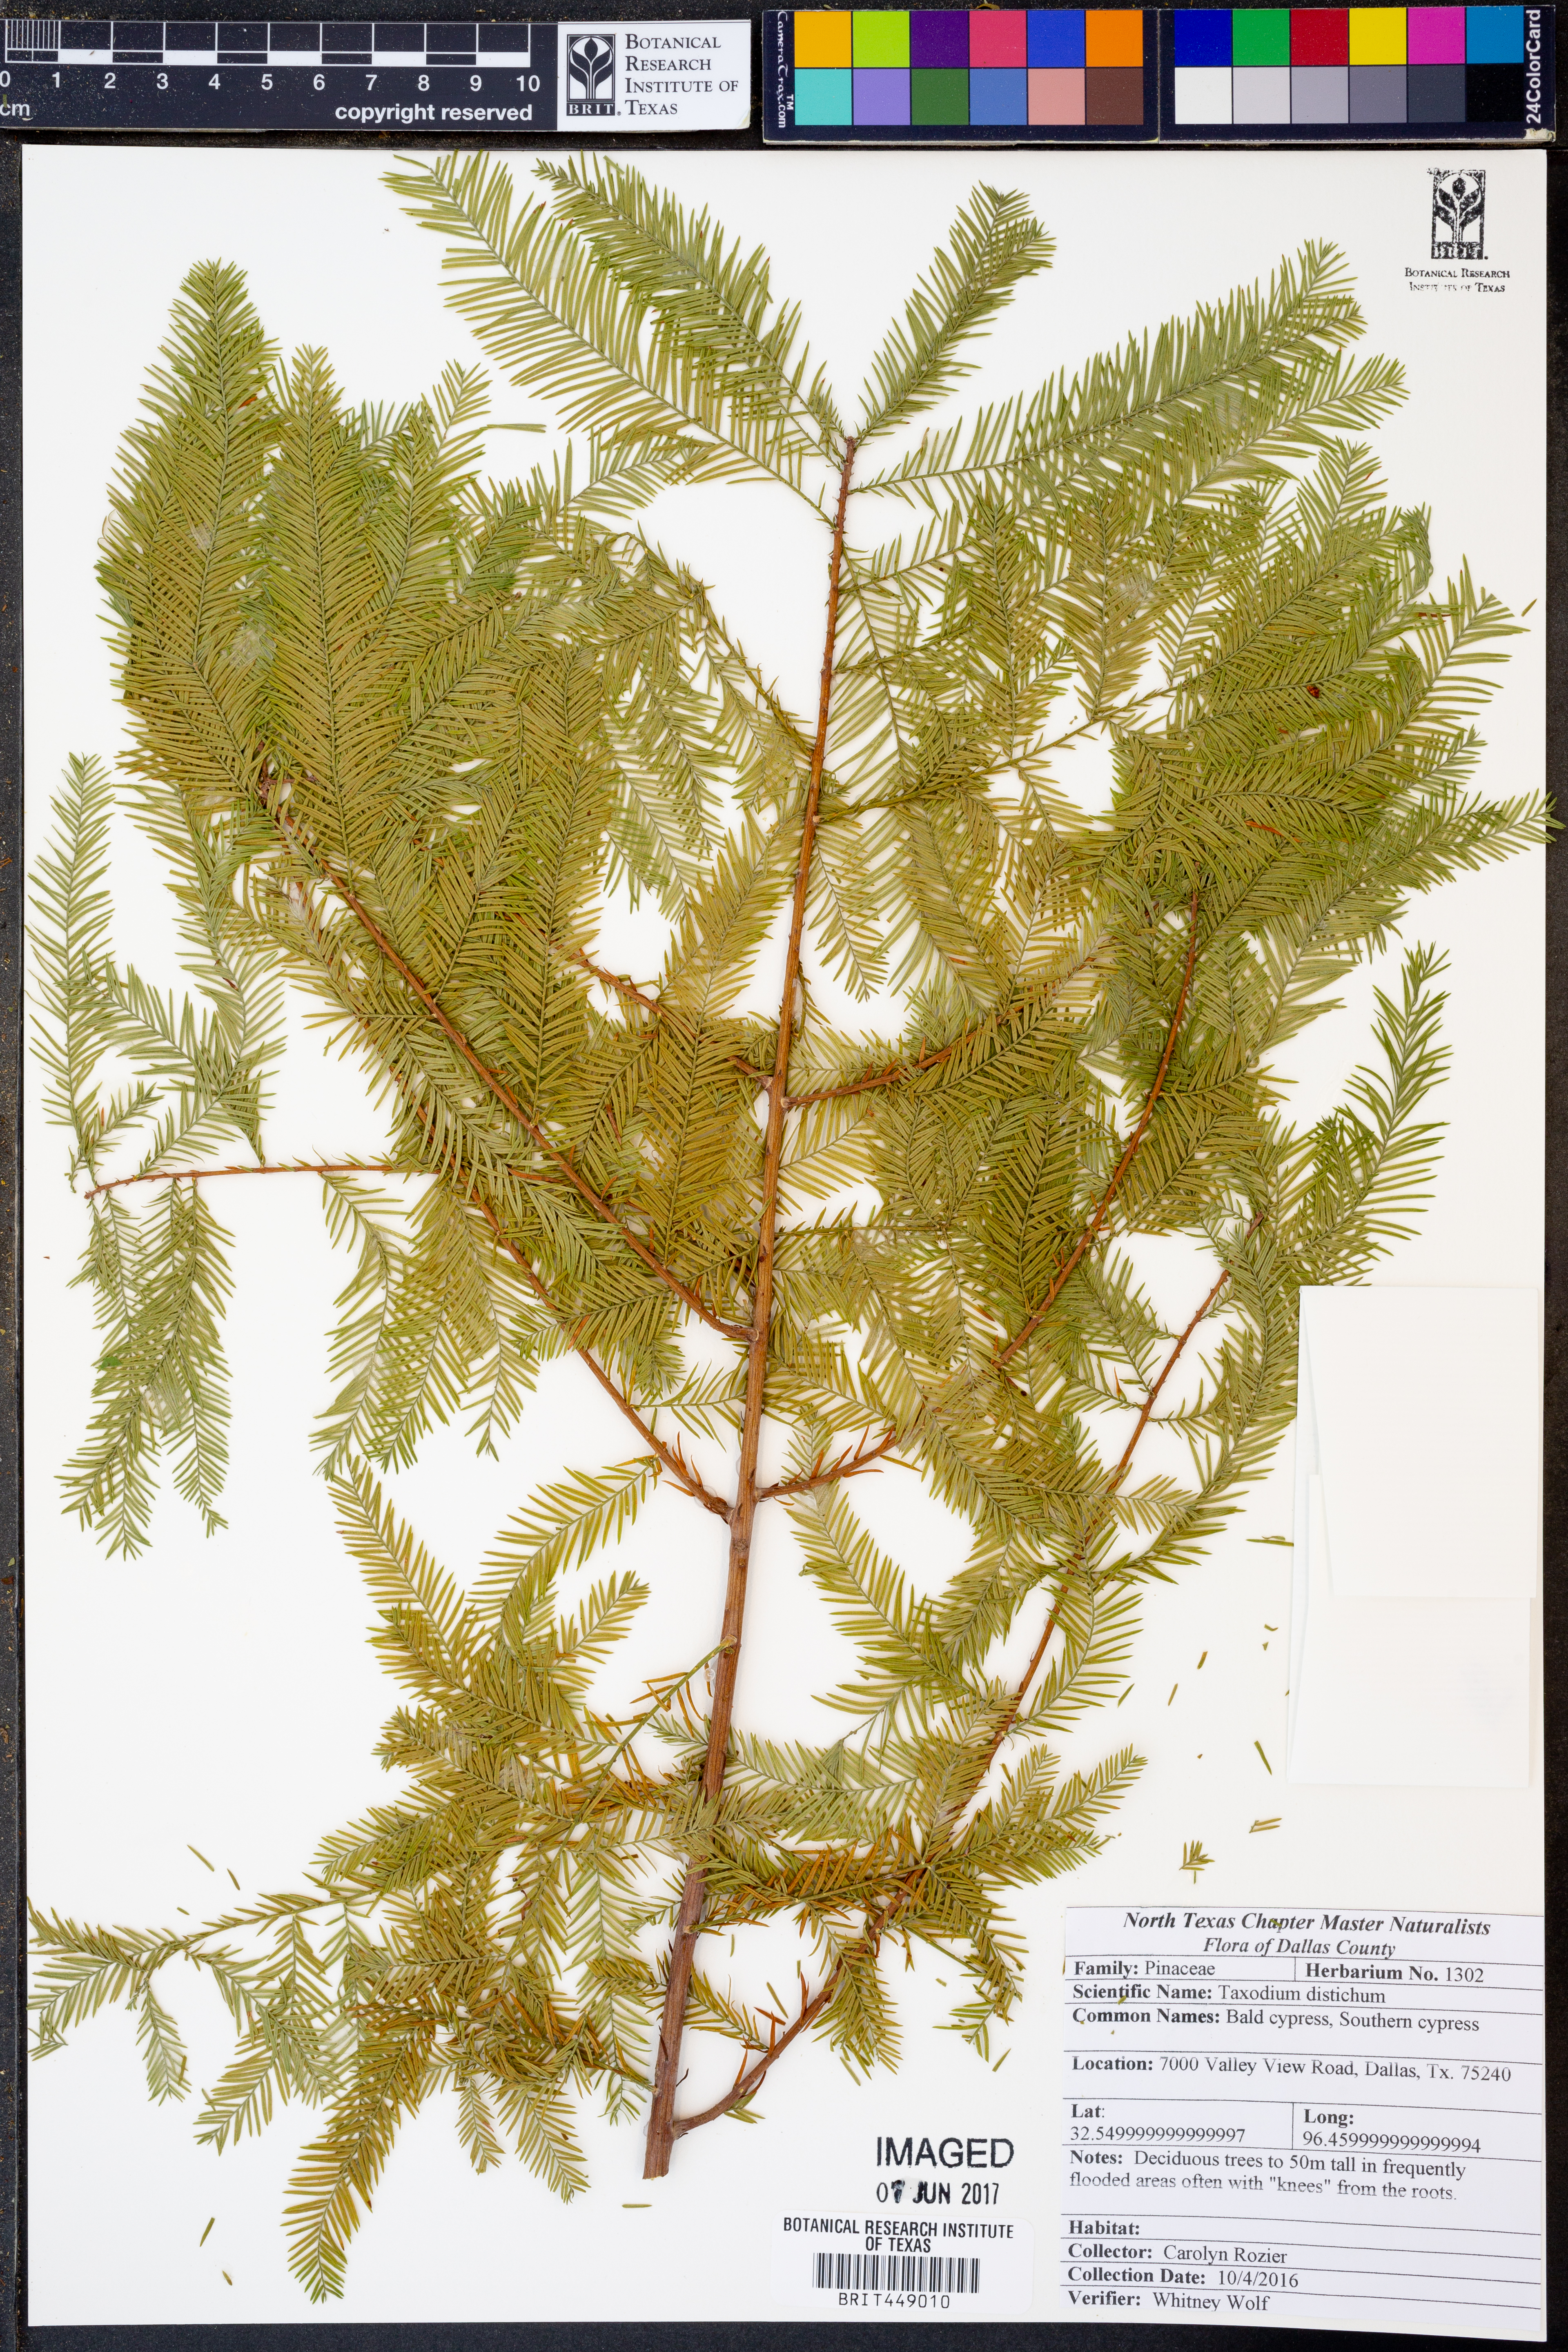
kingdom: Plantae
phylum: Tracheophyta
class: Pinopsida
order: Pinales
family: Cupressaceae
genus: Taxodium
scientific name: Taxodium distichum
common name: Bald cypress
